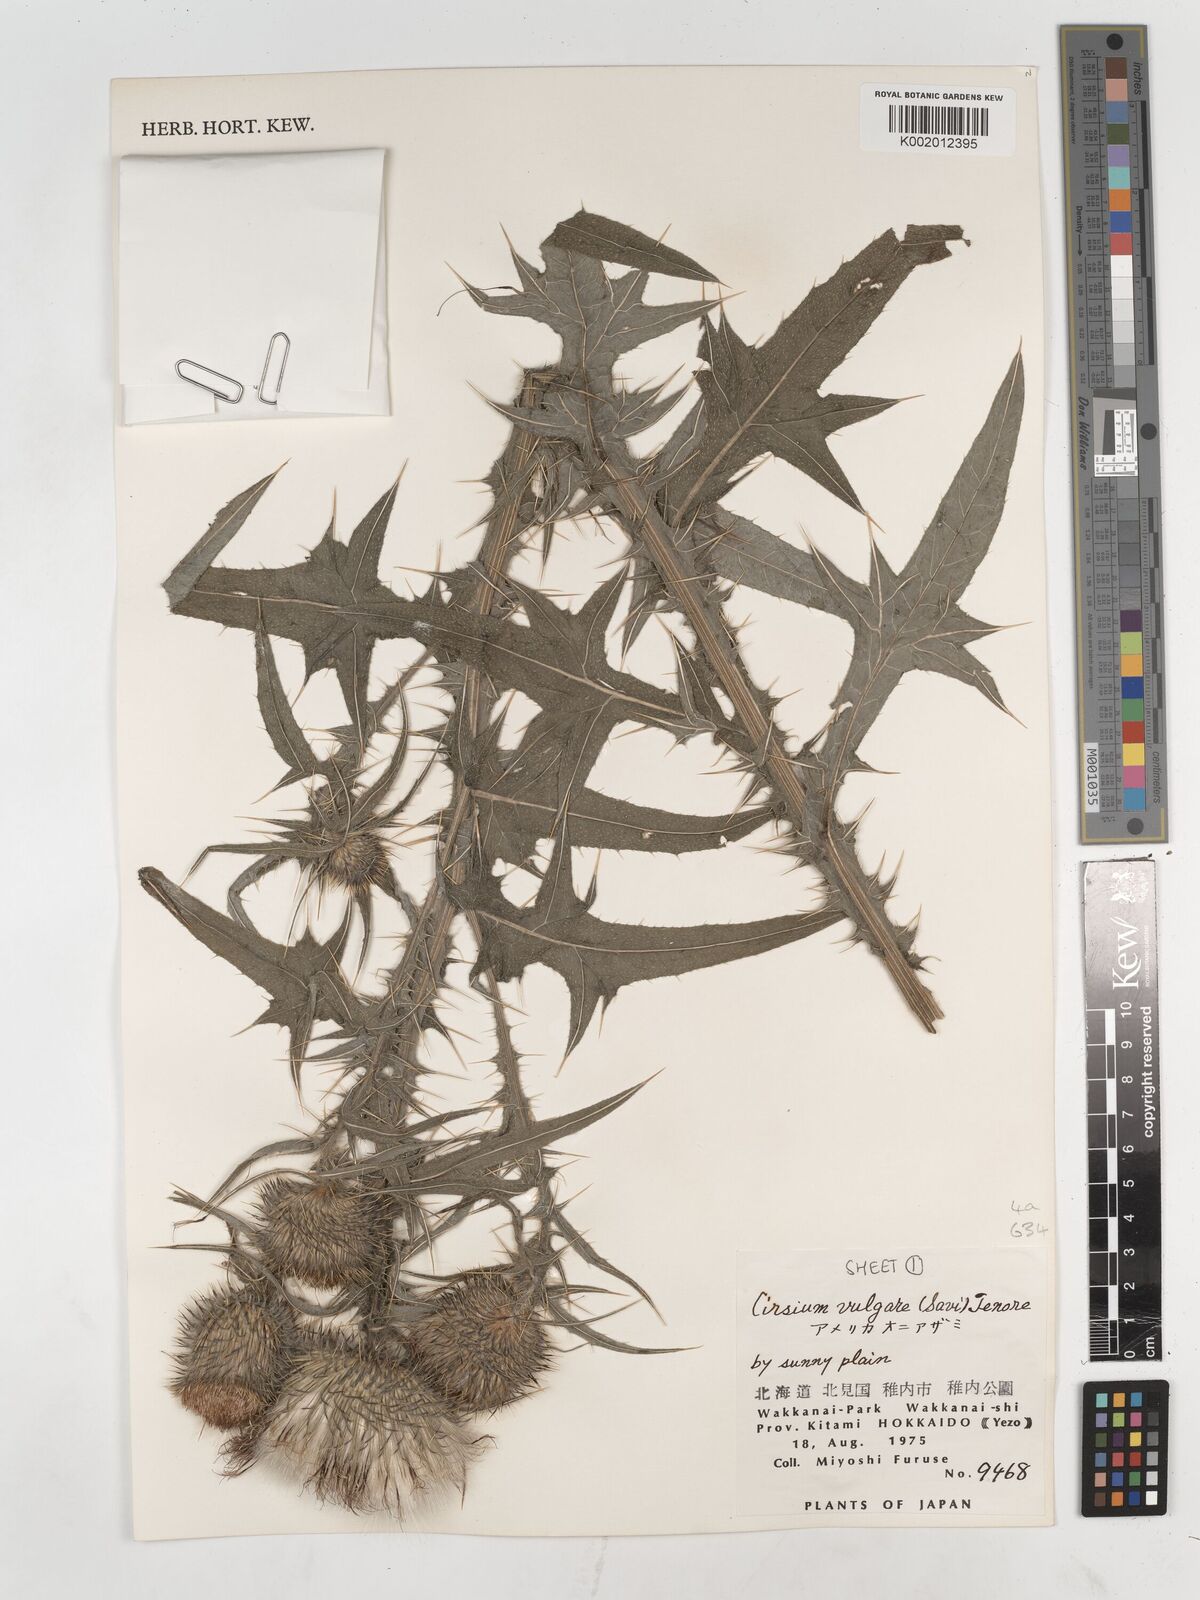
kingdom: Plantae
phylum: Tracheophyta
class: Magnoliopsida
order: Asterales
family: Asteraceae
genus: Cirsium
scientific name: Cirsium vulgare
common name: Bull thistle
